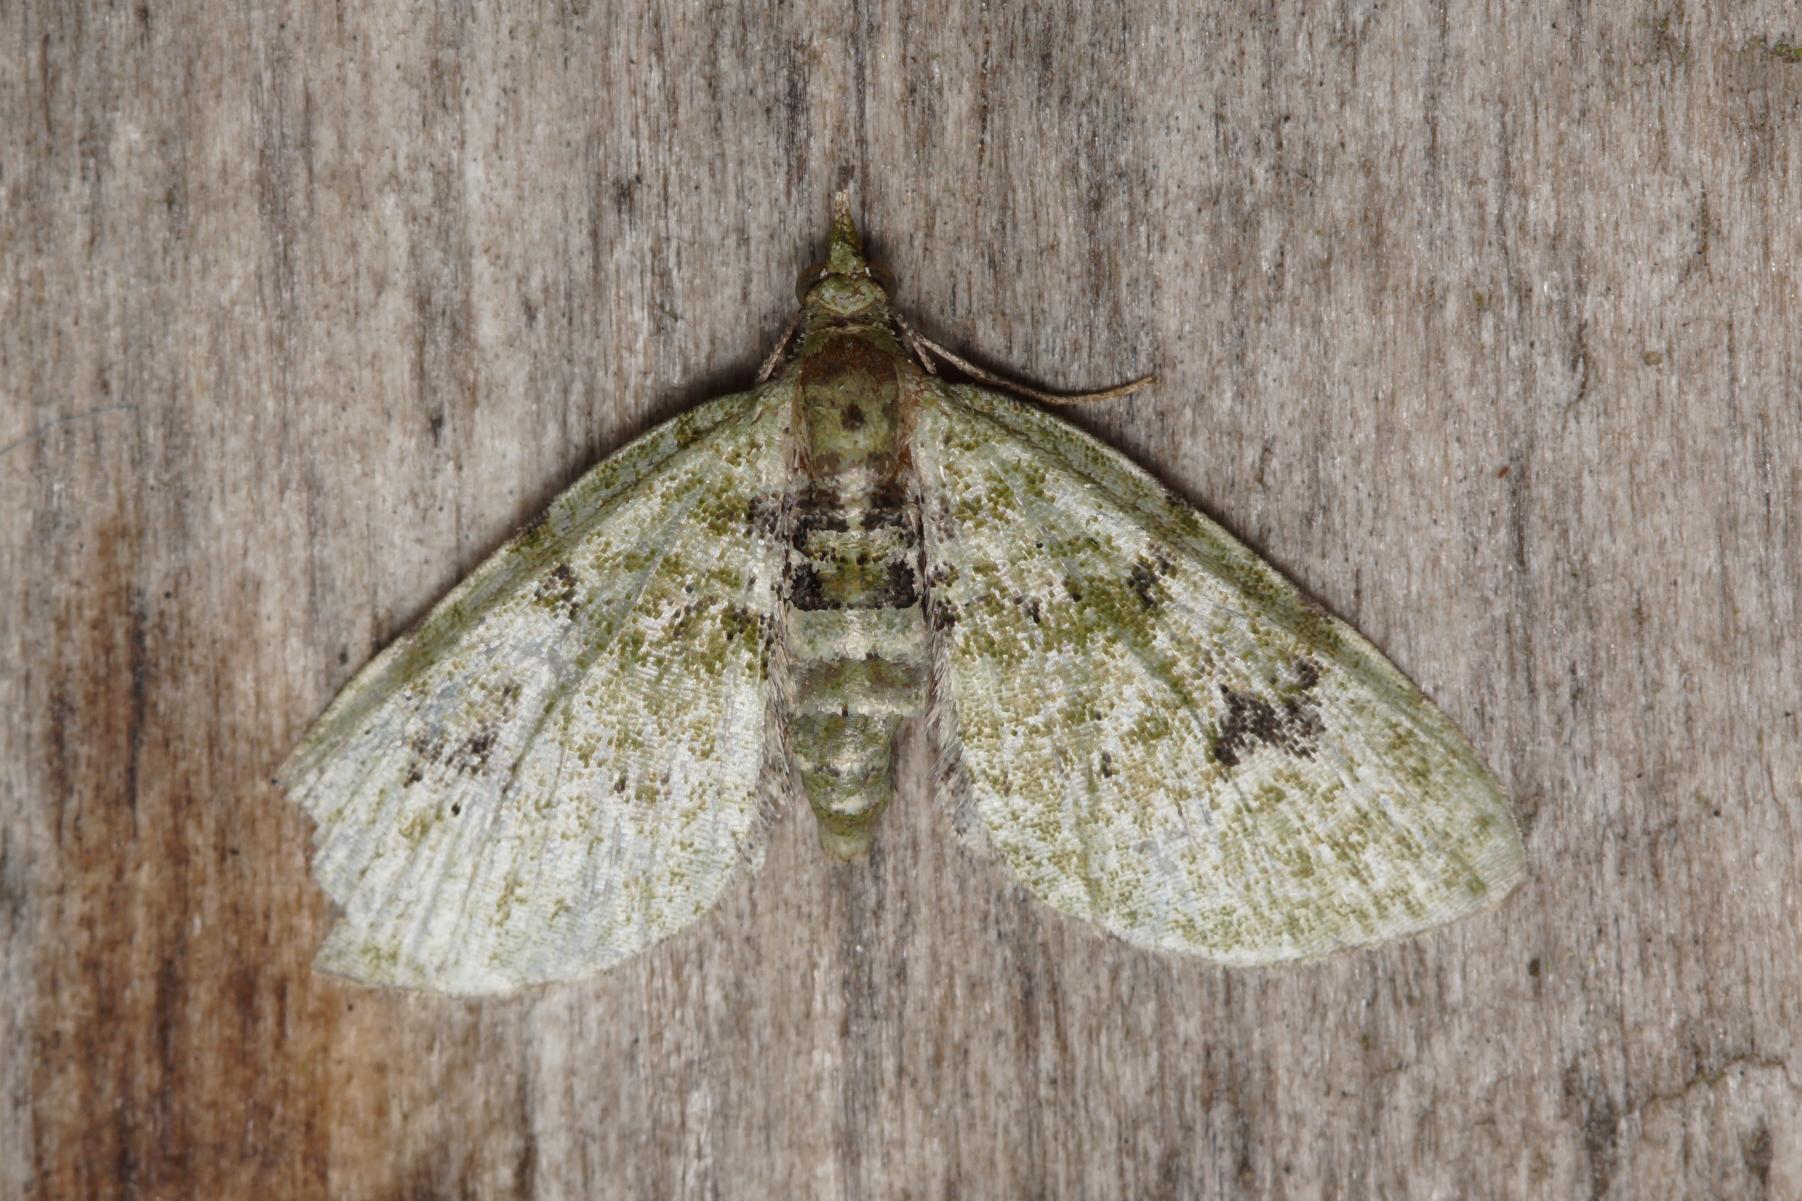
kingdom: Animalia
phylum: Arthropoda
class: Insecta
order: Lepidoptera
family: Geometridae
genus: Chloroclystis
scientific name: Chloroclystis v-ata
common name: V-dværgmåler
